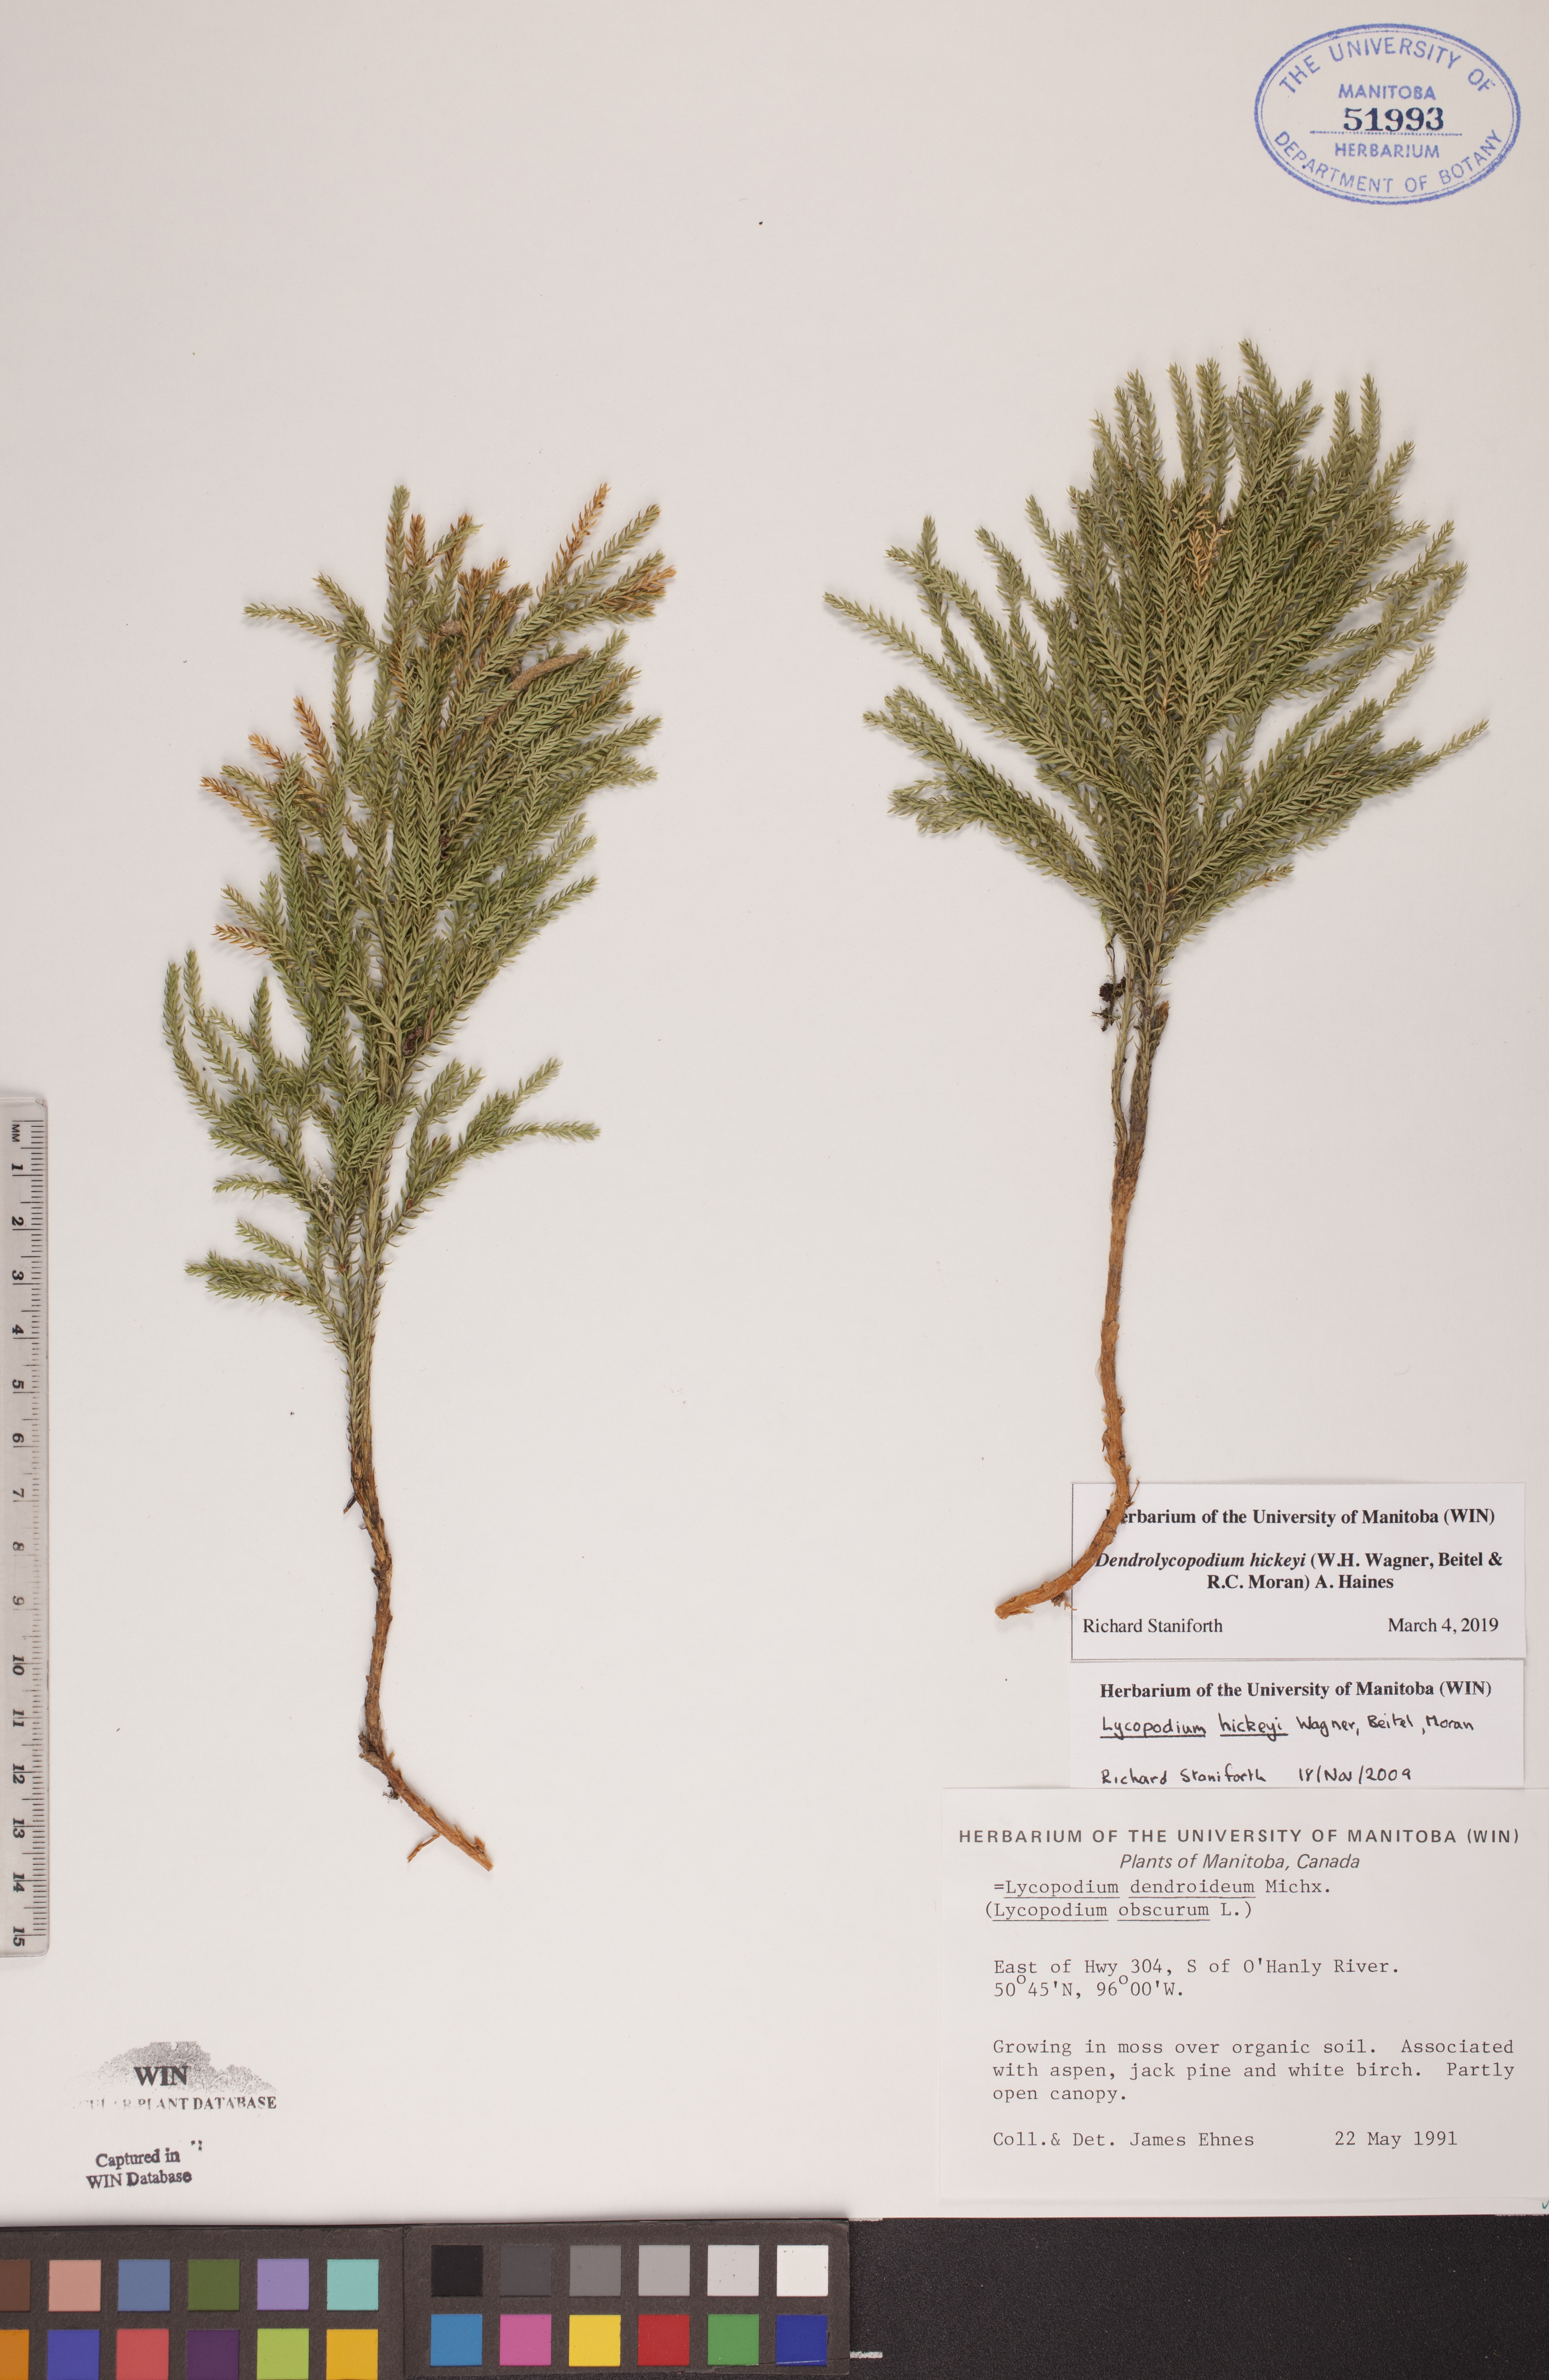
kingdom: Plantae
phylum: Tracheophyta
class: Lycopodiopsida
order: Lycopodiales
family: Lycopodiaceae
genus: Dendrolycopodium
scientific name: Dendrolycopodium hickeyi
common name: Hickey's clubmoss
